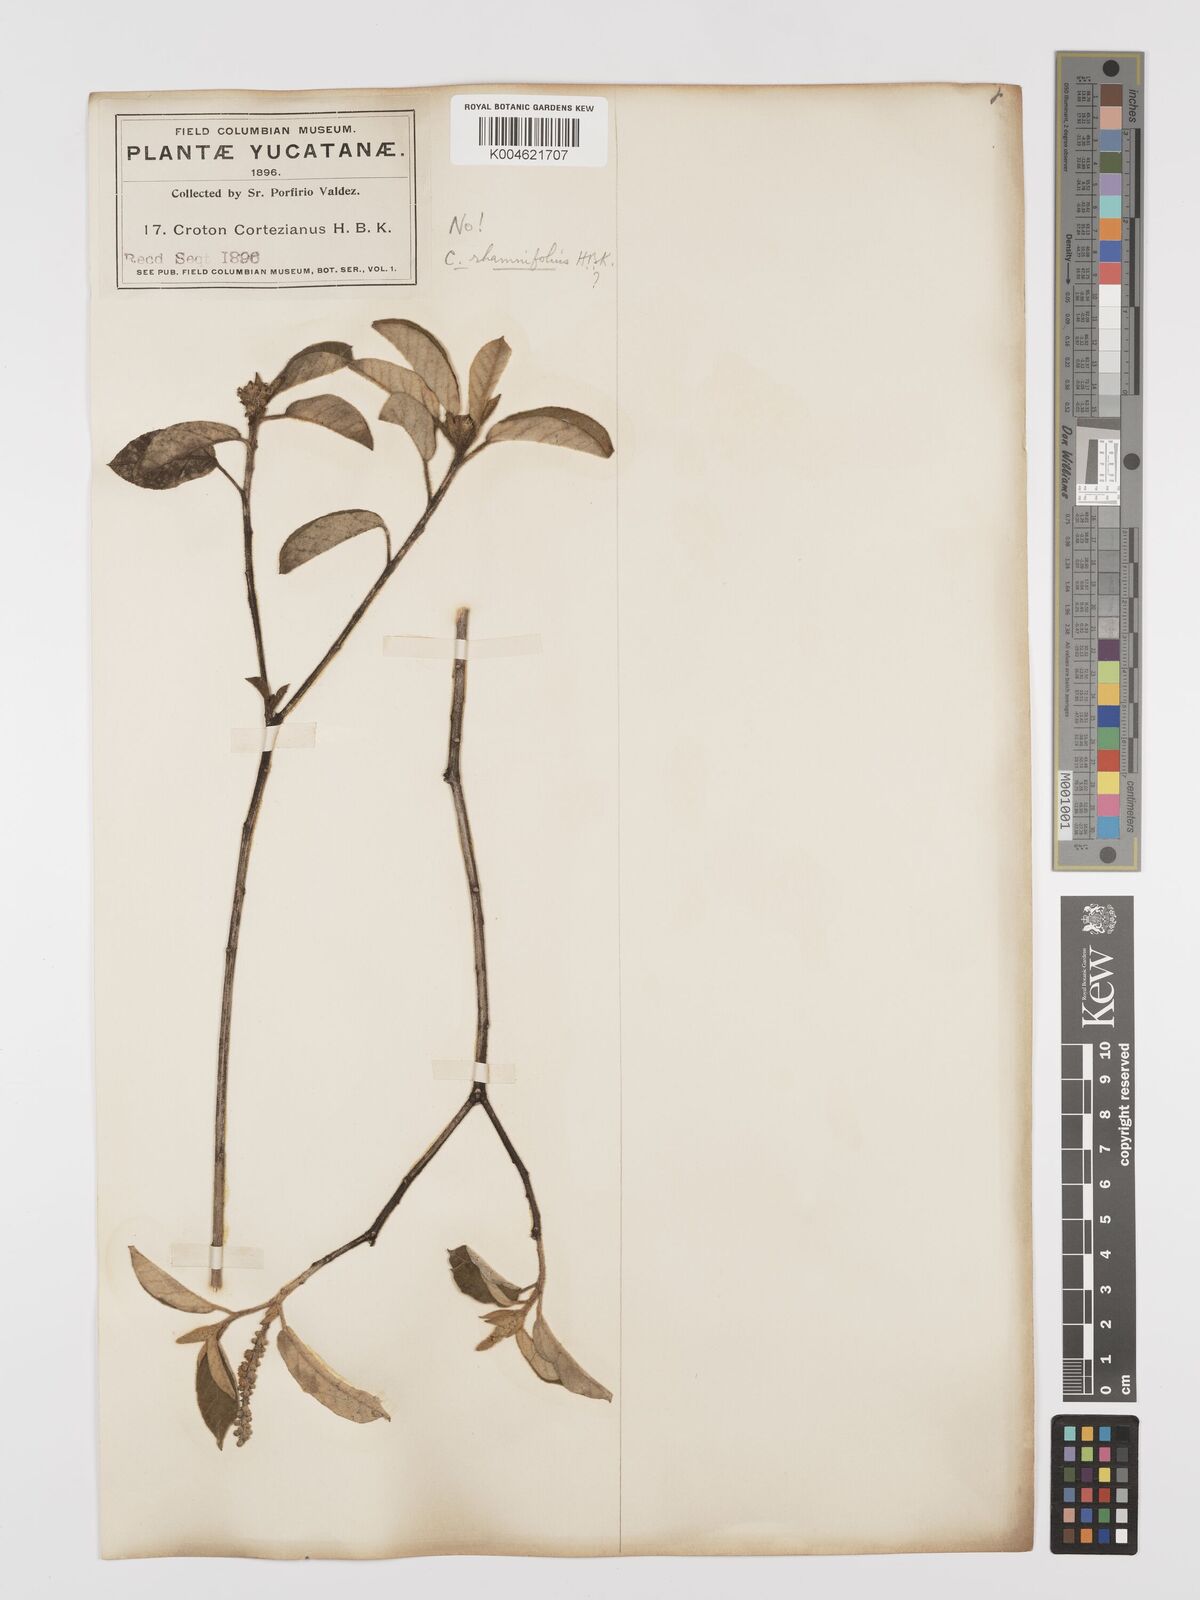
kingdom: Plantae
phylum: Tracheophyta
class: Magnoliopsida
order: Malpighiales
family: Euphorbiaceae
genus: Croton
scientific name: Croton cortesianus
